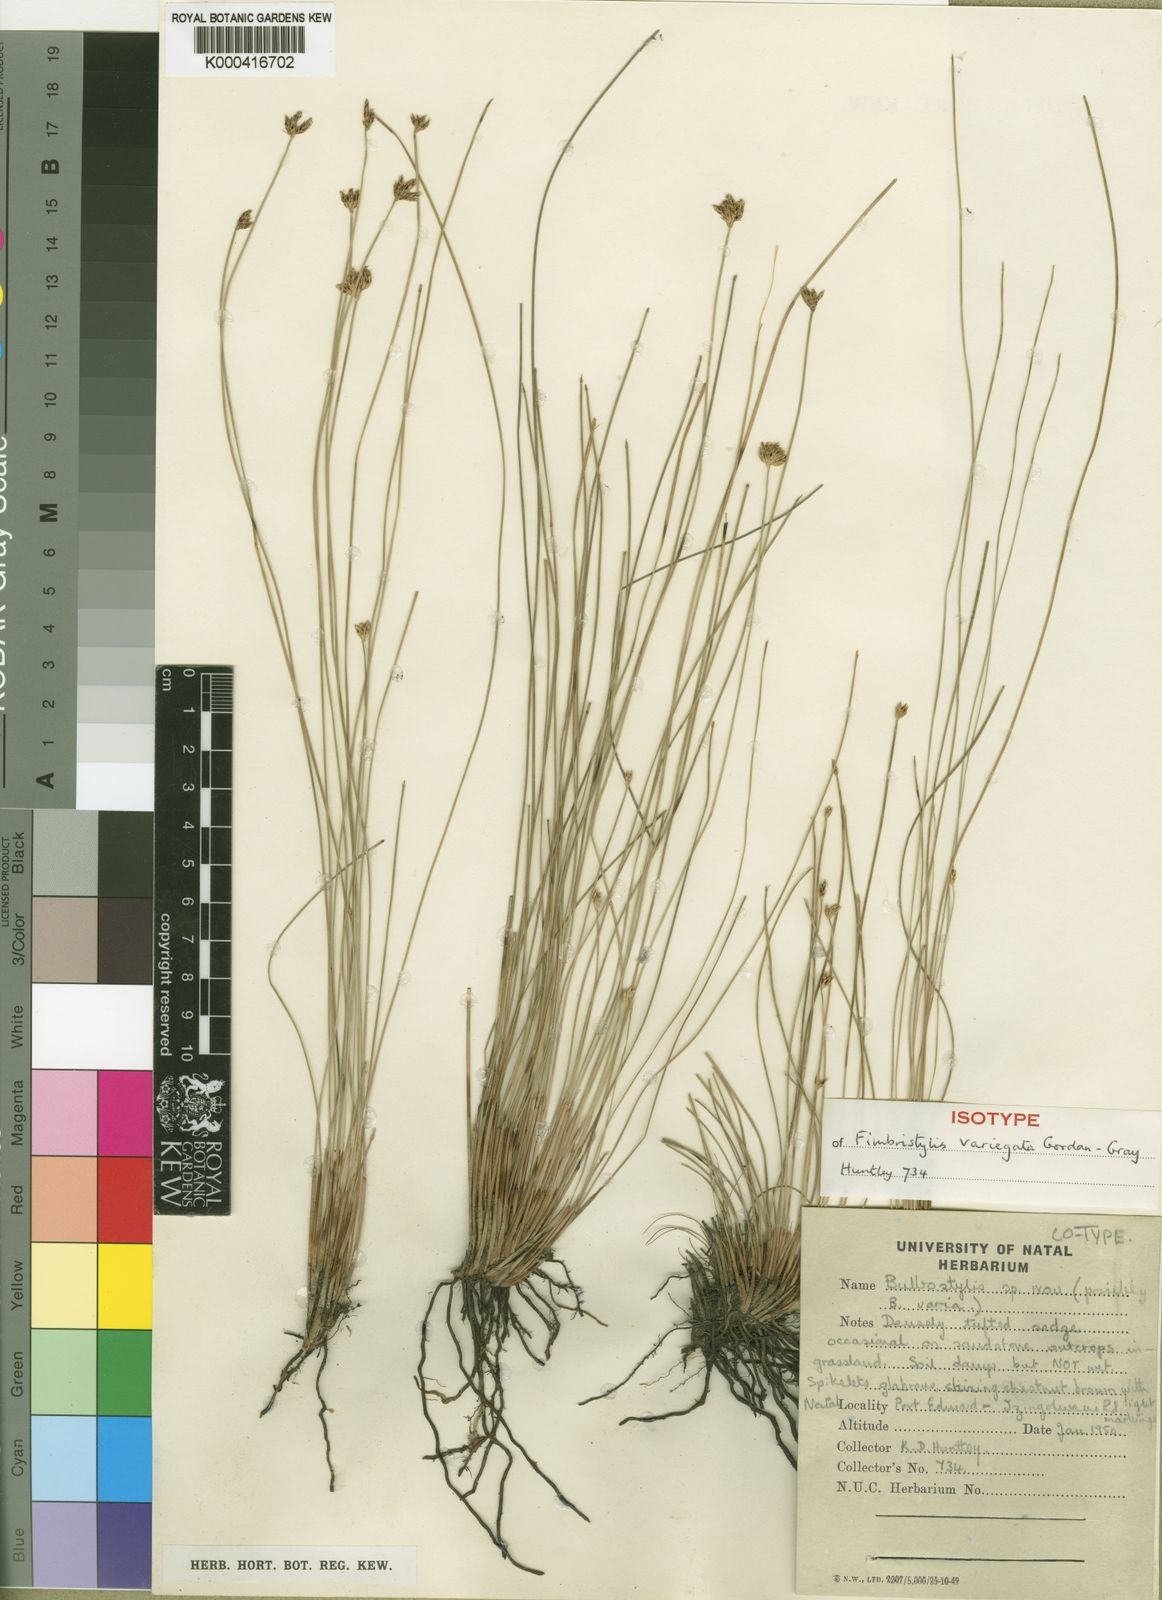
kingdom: Plantae
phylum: Tracheophyta
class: Liliopsida
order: Poales
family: Cyperaceae
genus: Zulustylis
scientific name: Zulustylis variegata
